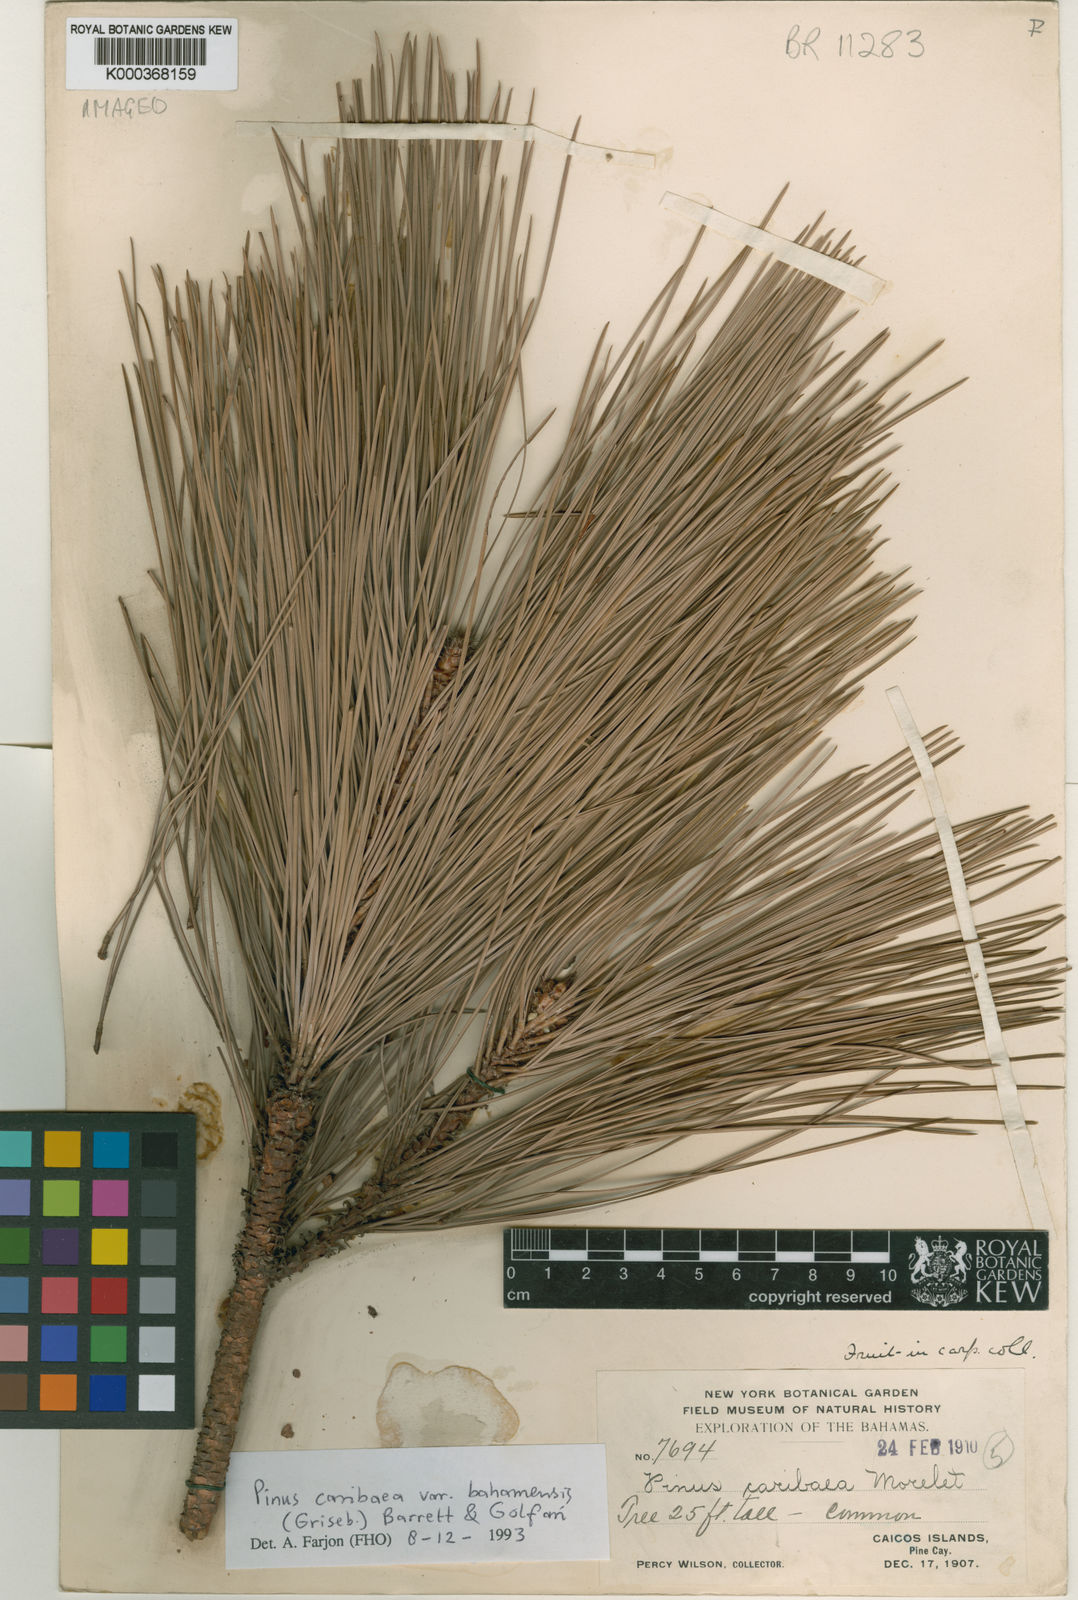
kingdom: Plantae
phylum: Tracheophyta
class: Pinopsida
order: Pinales
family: Pinaceae
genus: Pinus
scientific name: Pinus caribaea
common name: Caribbean pine
